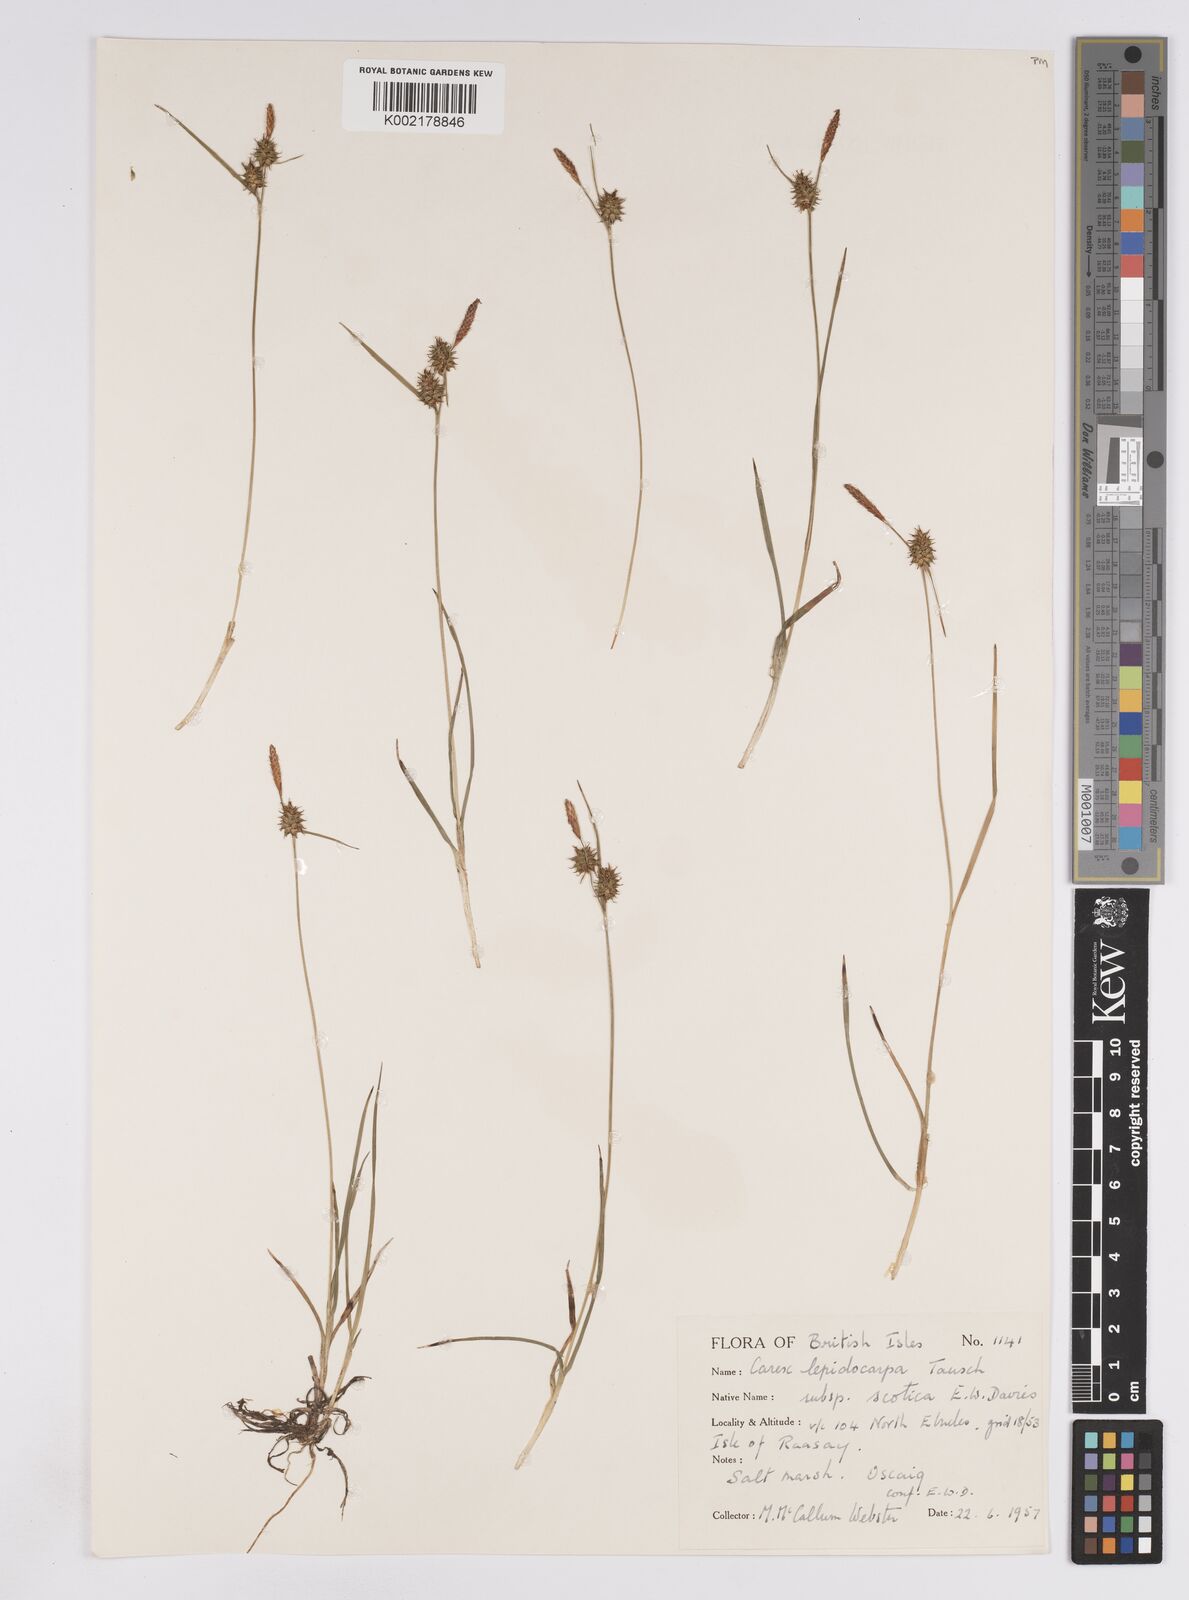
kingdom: Plantae
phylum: Tracheophyta
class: Liliopsida
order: Poales
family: Cyperaceae
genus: Carex
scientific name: Carex lepidocarpa
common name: Long-stalked yellow-sedge
